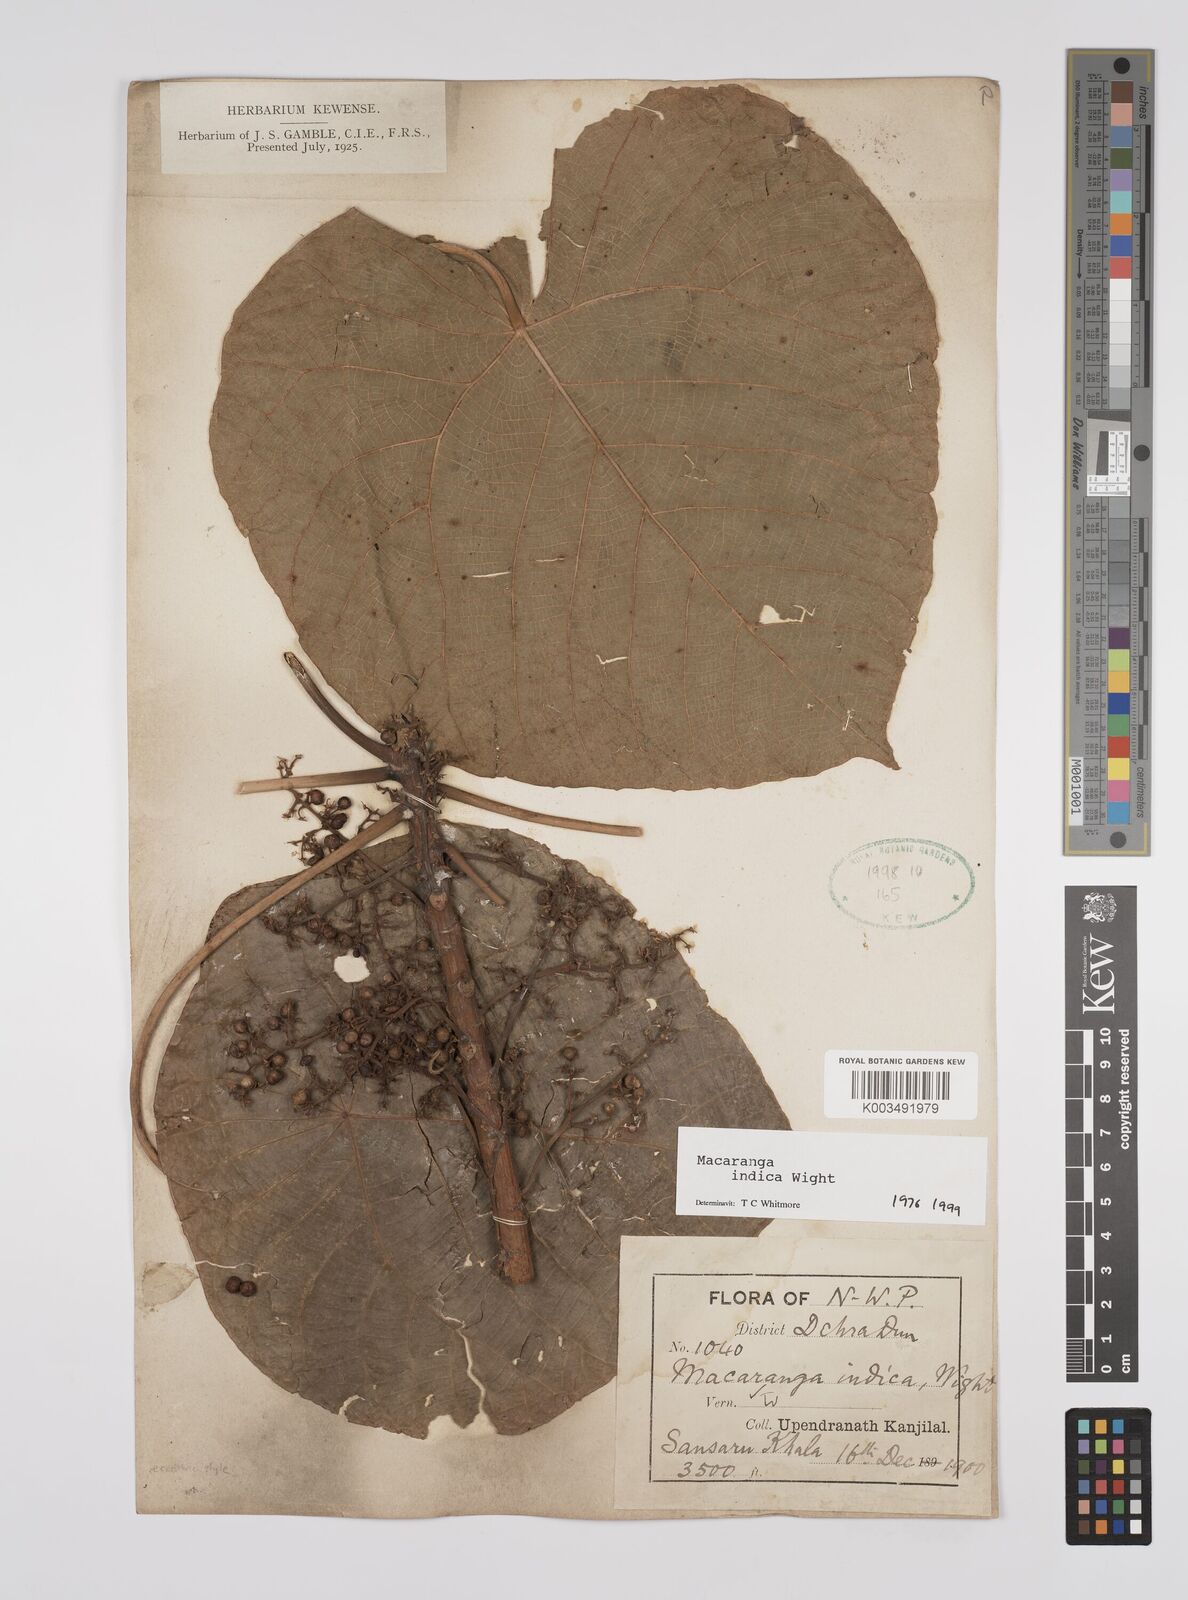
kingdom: Plantae
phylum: Tracheophyta
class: Magnoliopsida
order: Malpighiales
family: Euphorbiaceae
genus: Macaranga
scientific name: Macaranga indica
